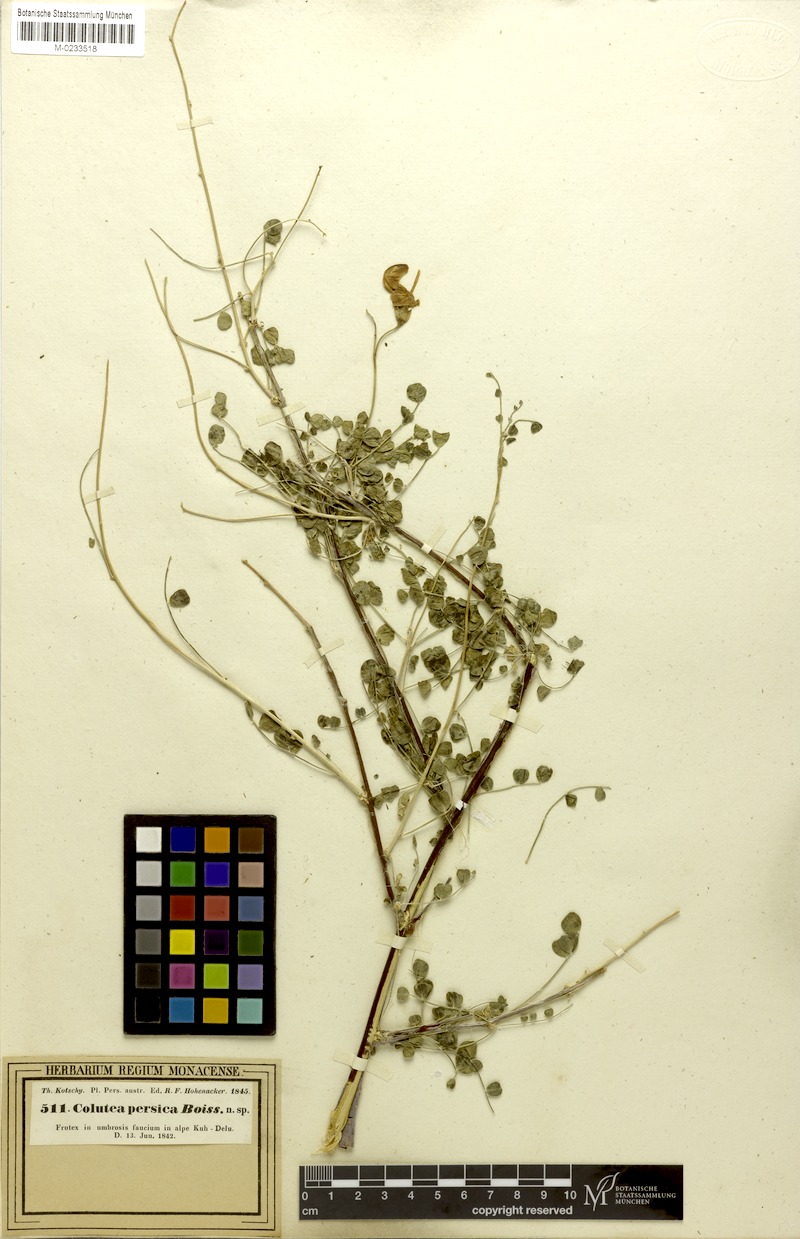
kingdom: Plantae
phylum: Tracheophyta
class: Magnoliopsida
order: Fabales
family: Fabaceae
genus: Colutea
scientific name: Colutea persica
